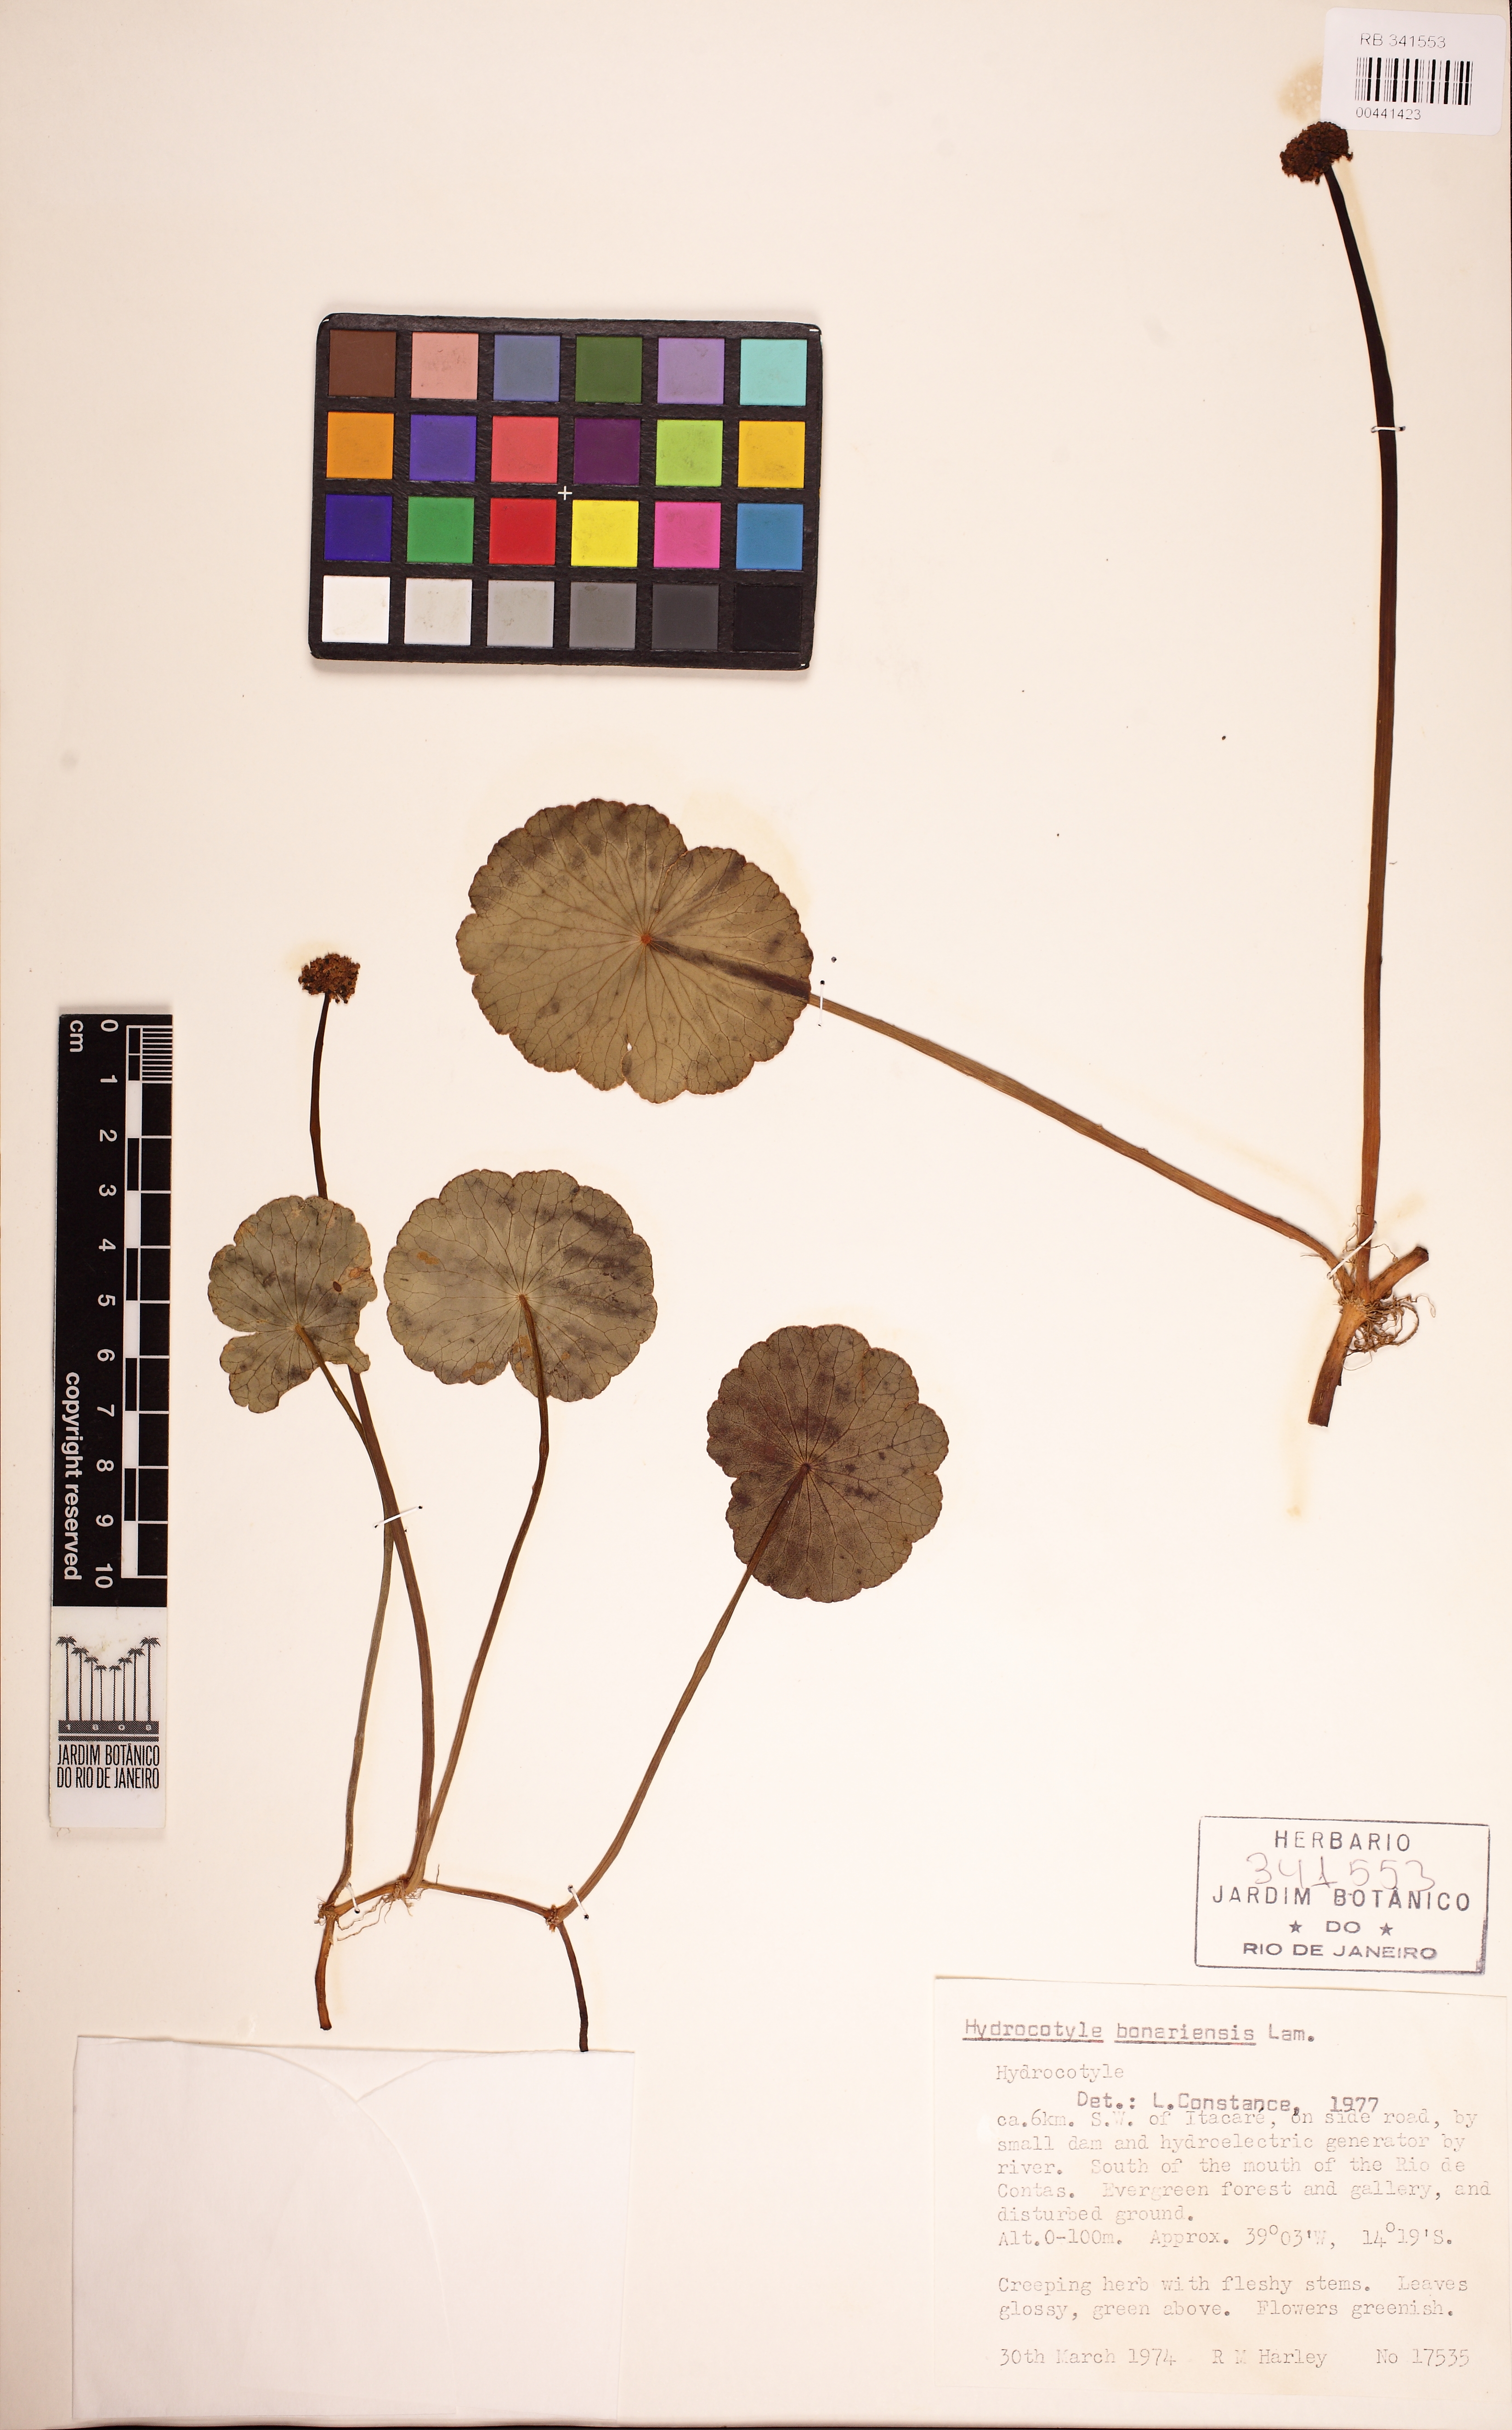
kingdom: Plantae
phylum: Tracheophyta
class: Magnoliopsida
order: Apiales
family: Araliaceae
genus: Hydrocotyle
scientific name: Hydrocotyle bonariensis
